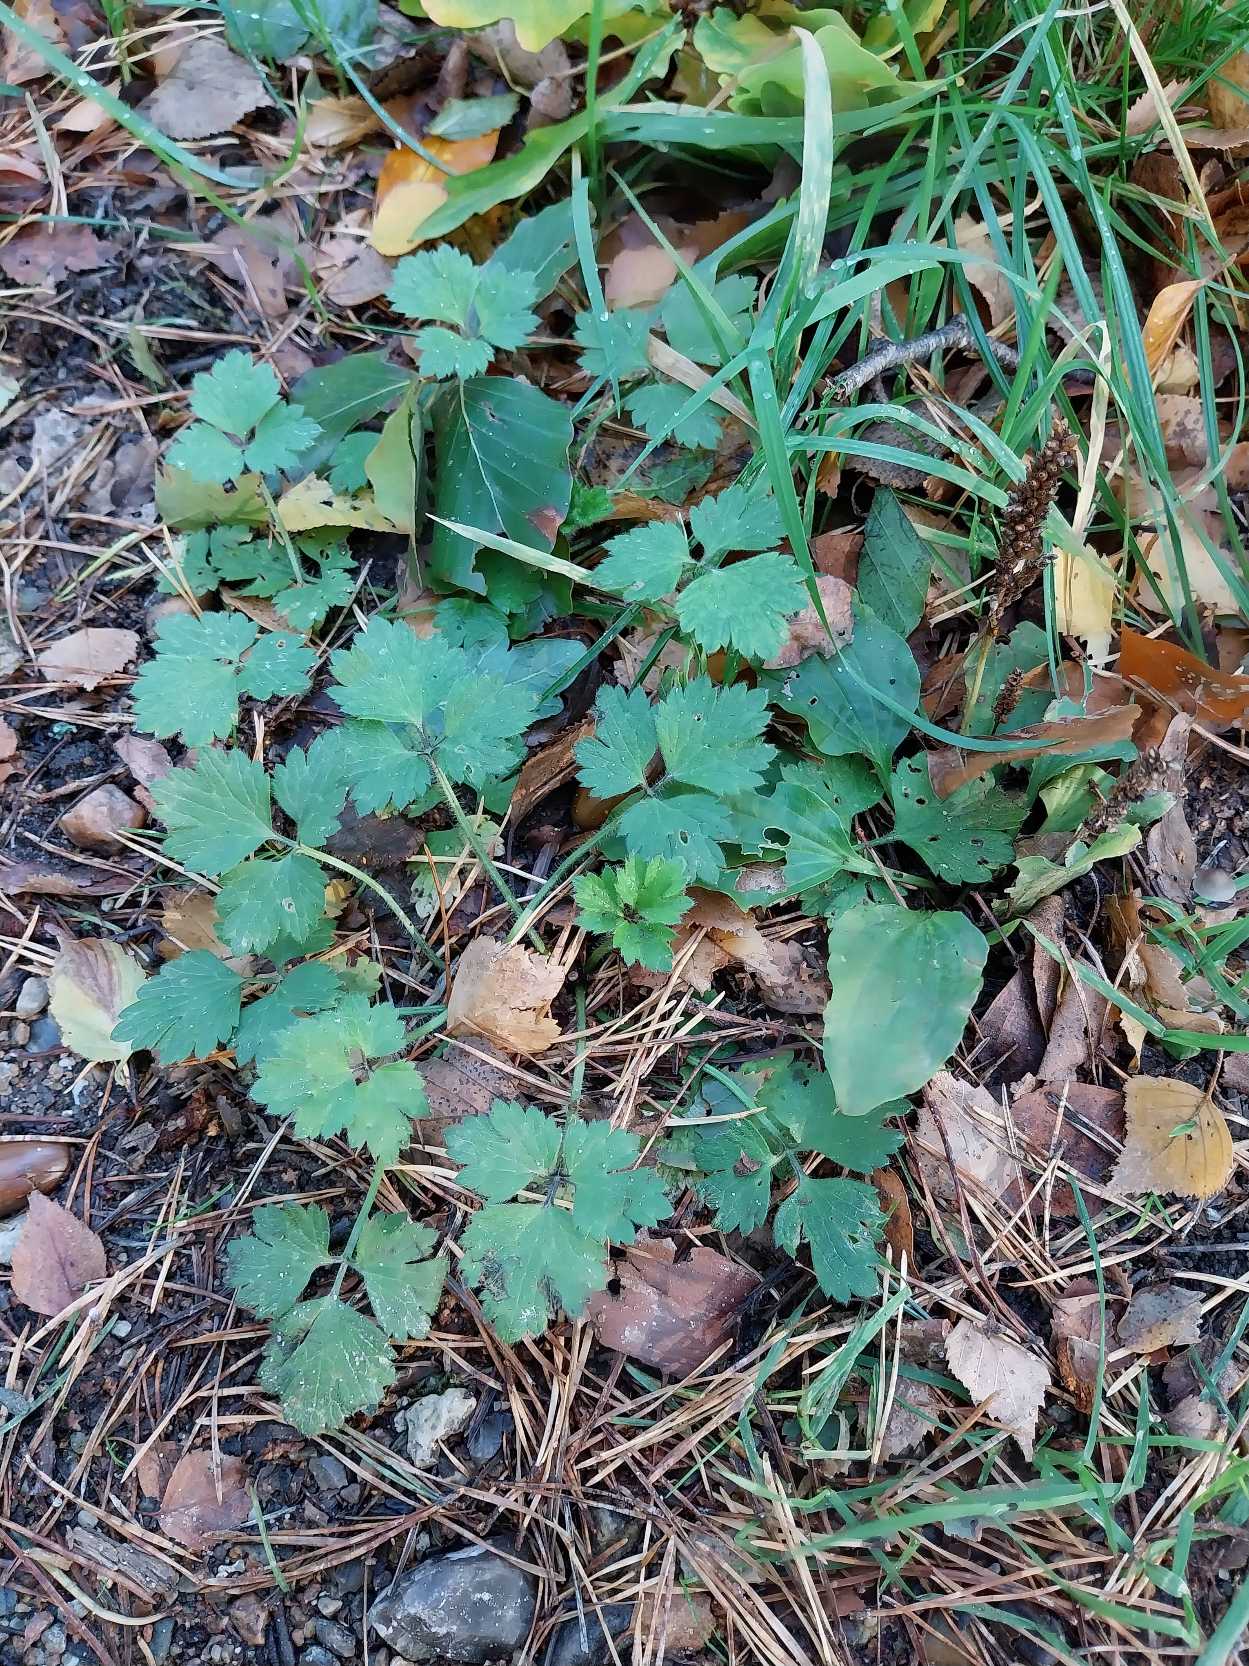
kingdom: Plantae
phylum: Tracheophyta
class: Magnoliopsida
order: Ranunculales
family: Ranunculaceae
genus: Ranunculus
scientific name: Ranunculus repens
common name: Lav ranunkel
